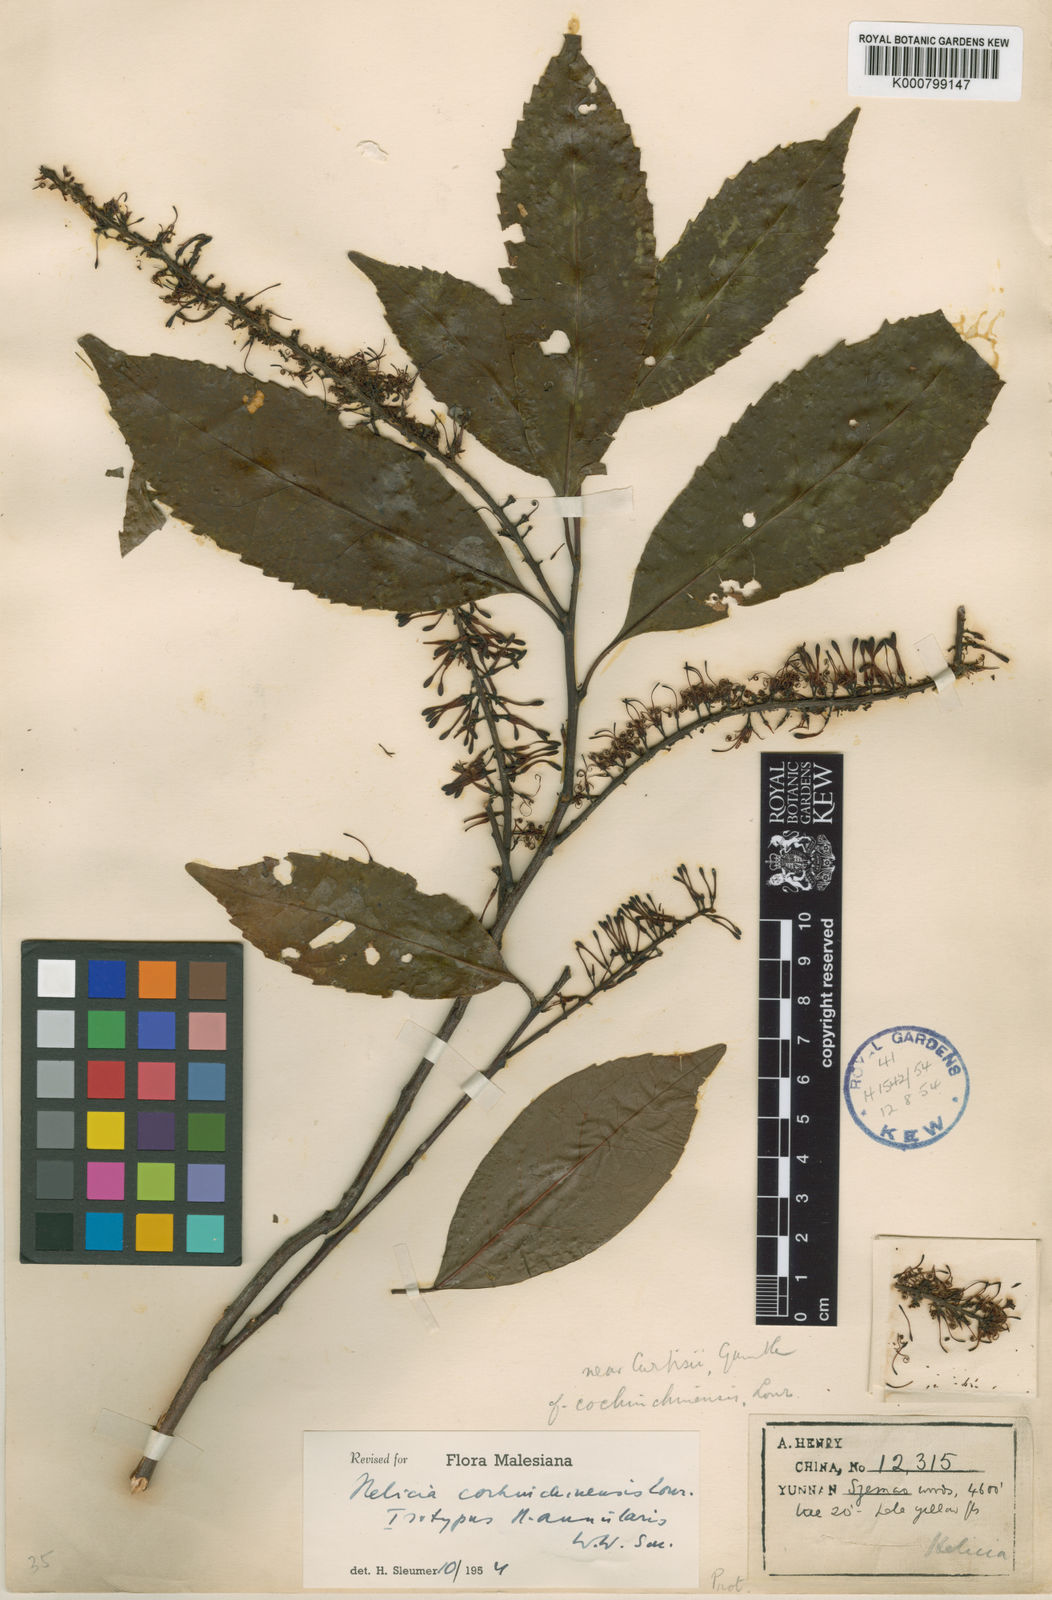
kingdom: Plantae
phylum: Tracheophyta
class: Magnoliopsida
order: Proteales
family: Proteaceae
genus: Helicia
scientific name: Helicia cochinchinensis
